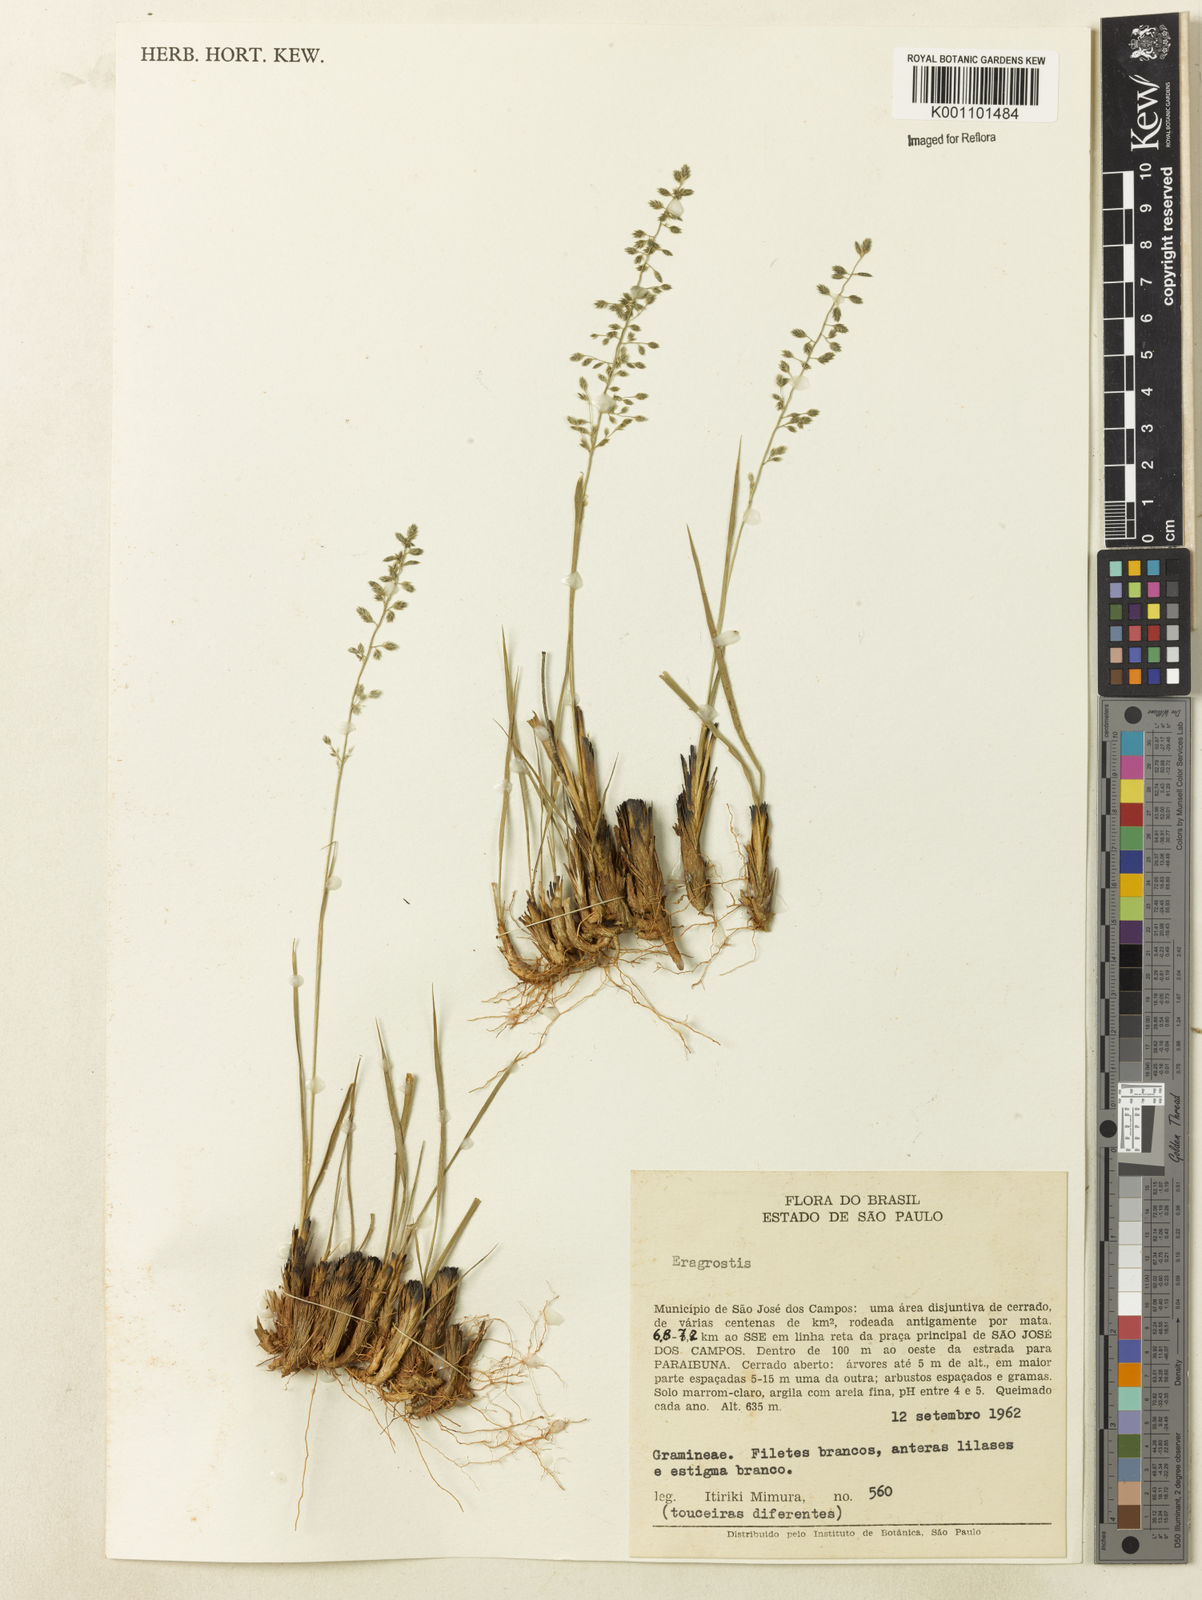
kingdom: Plantae
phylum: Tracheophyta
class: Liliopsida
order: Poales
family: Poaceae
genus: Eragrostis
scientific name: Eragrostis
